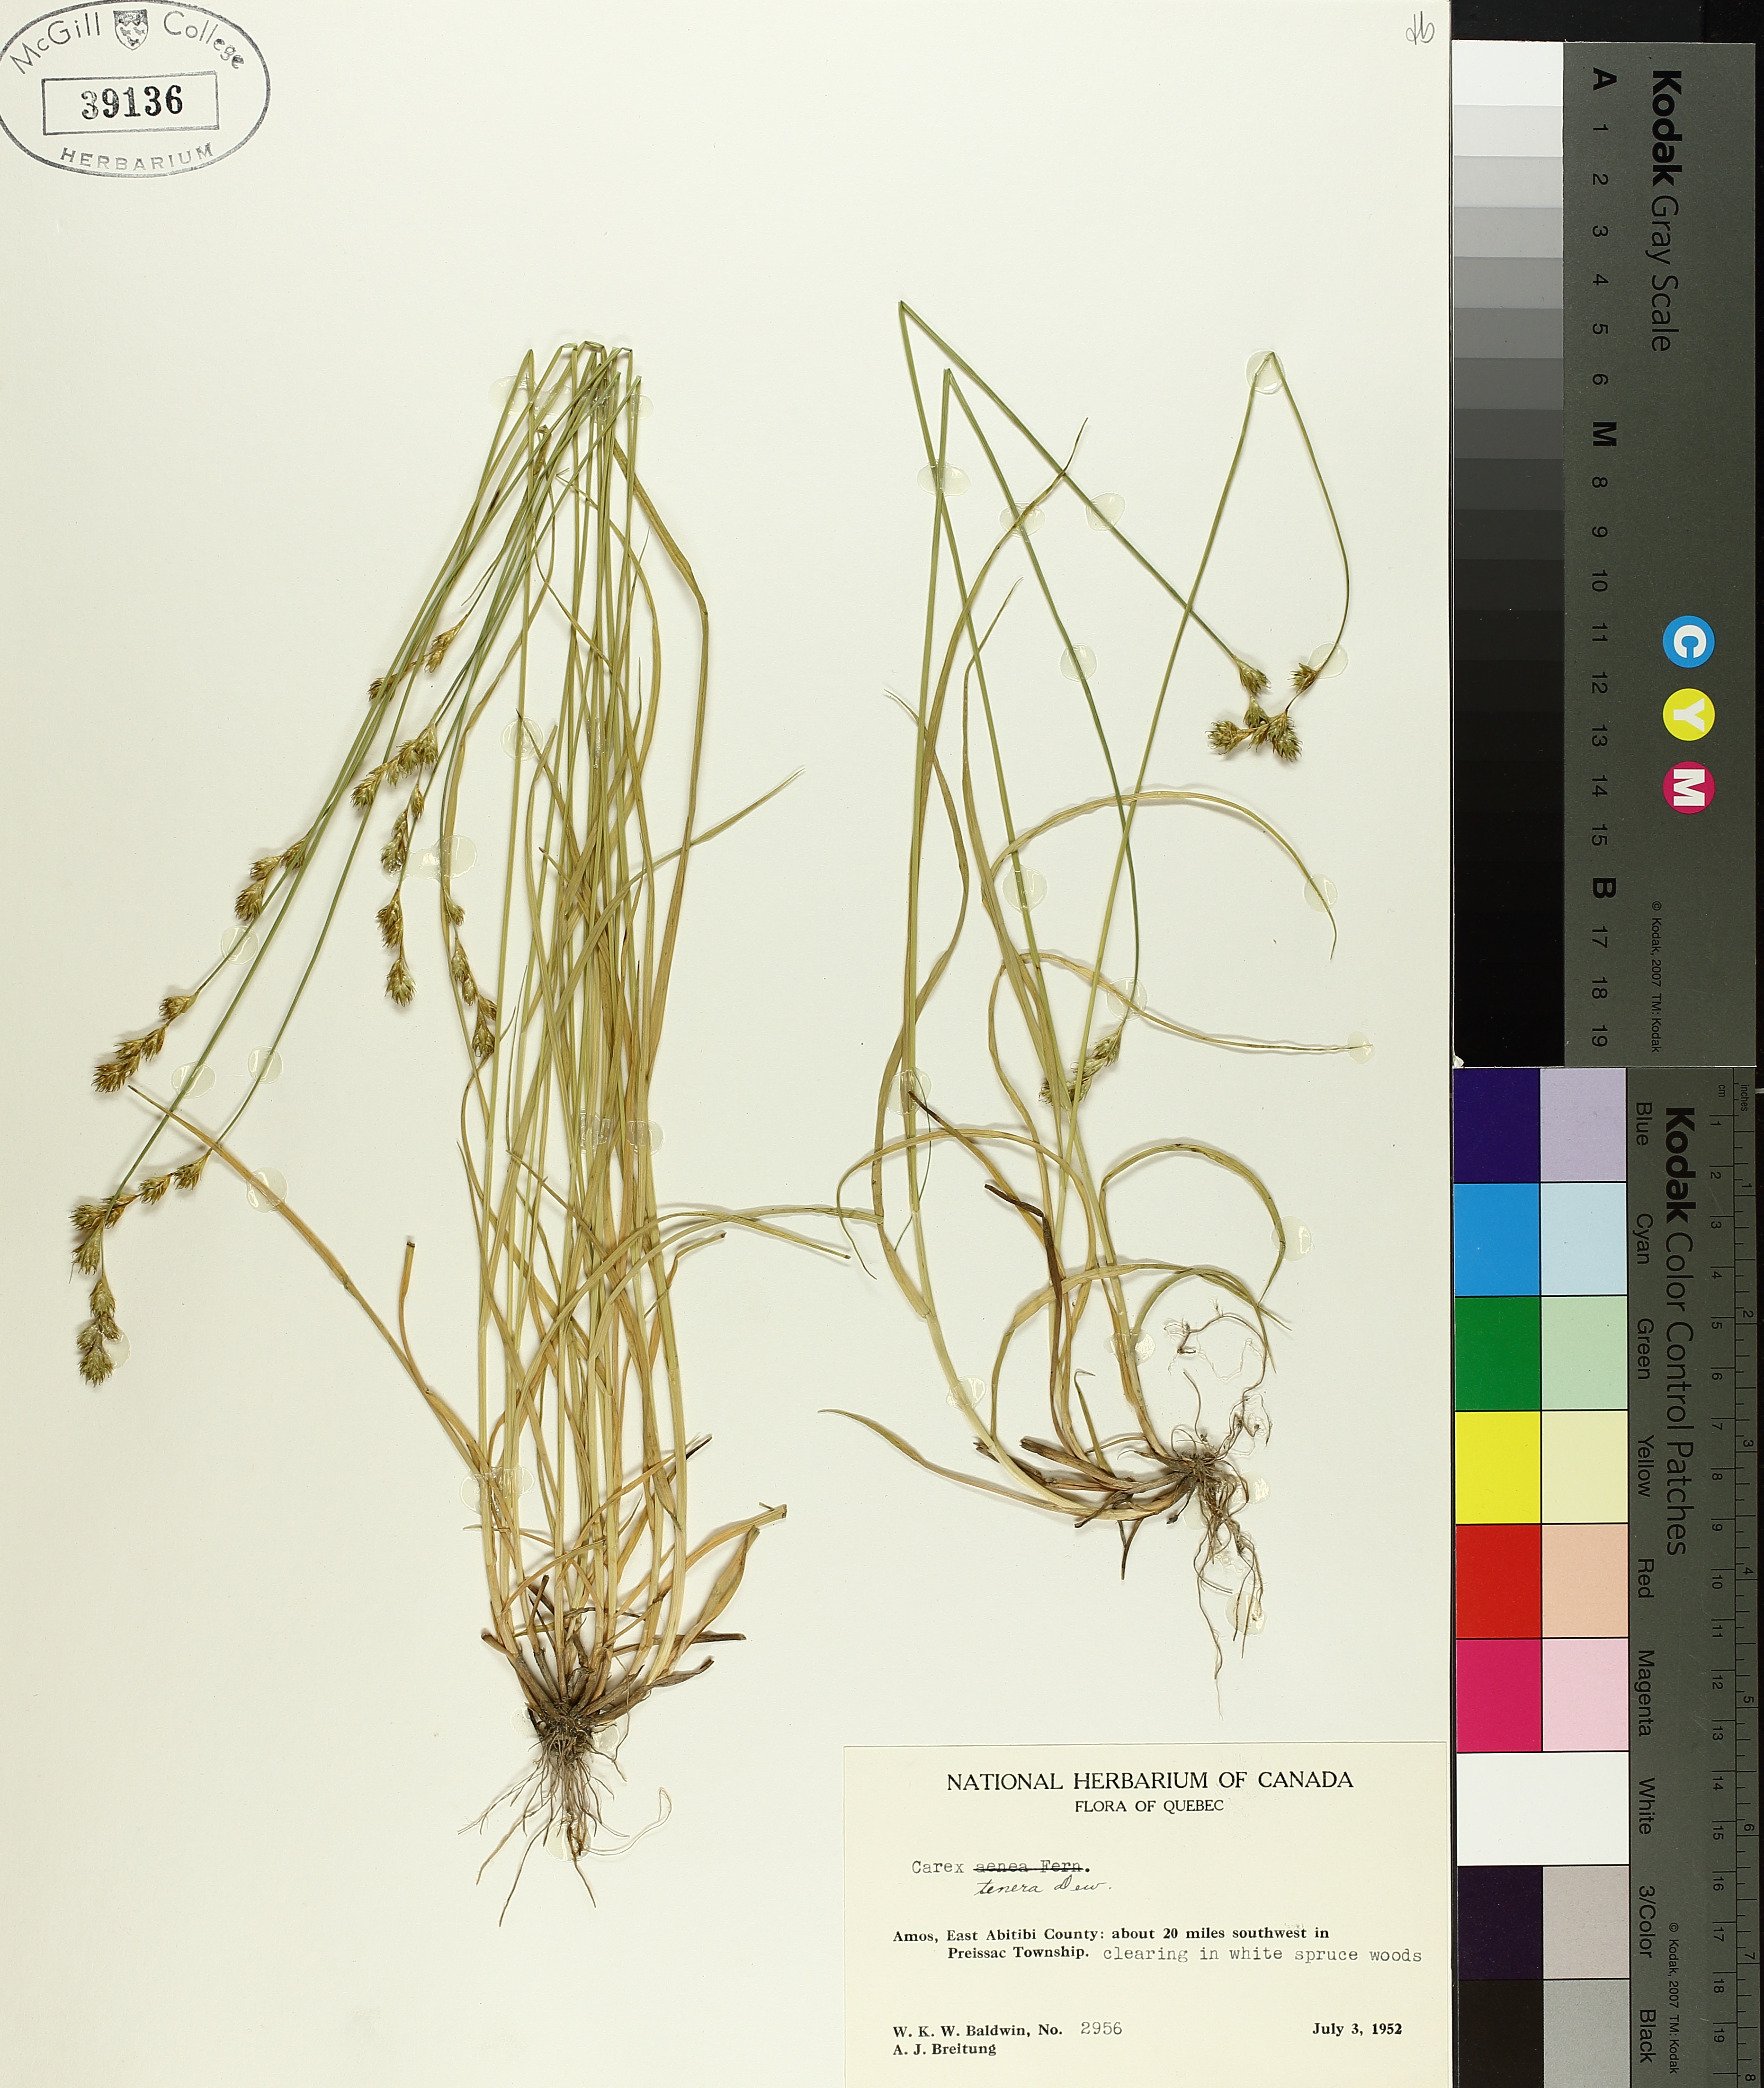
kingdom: Plantae
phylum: Tracheophyta
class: Liliopsida
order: Poales
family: Cyperaceae
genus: Carex
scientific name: Carex tenera
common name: Broad-fruited sedge
